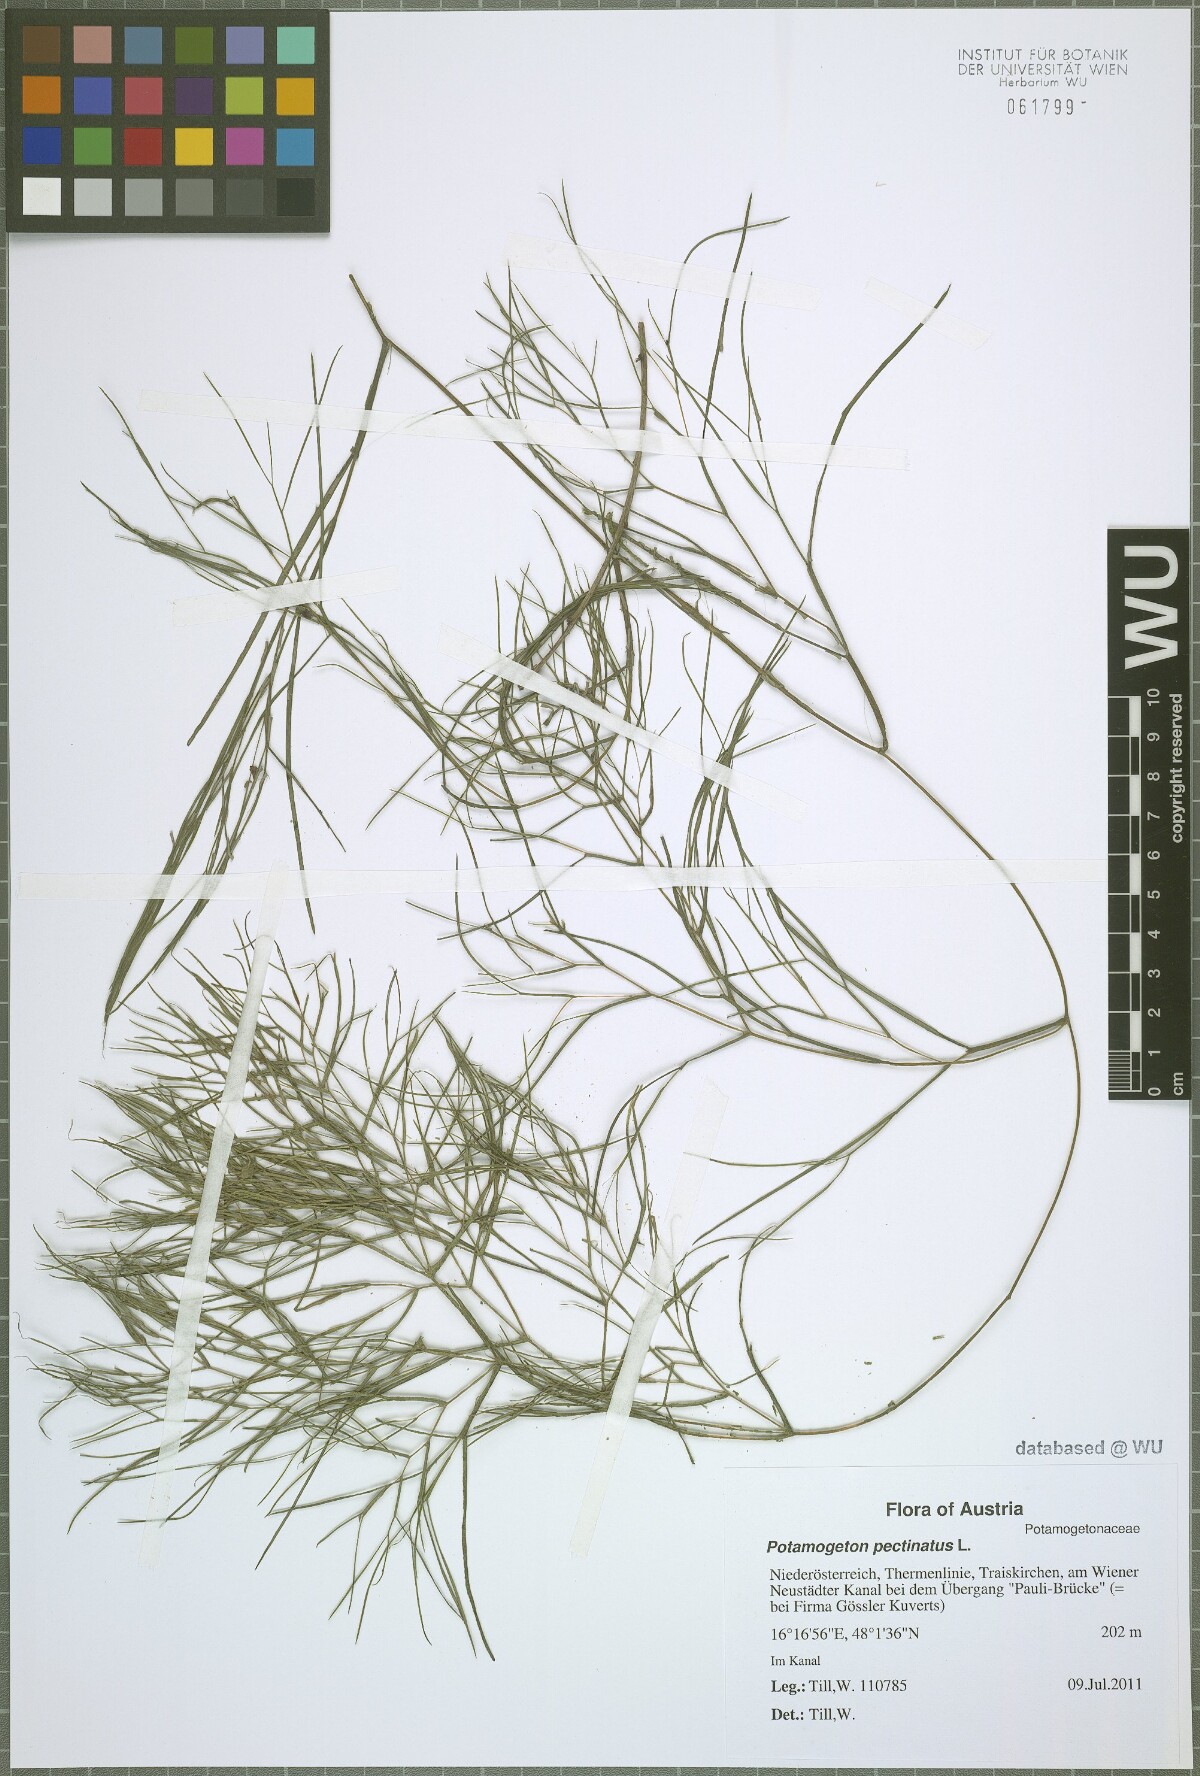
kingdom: Plantae
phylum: Tracheophyta
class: Liliopsida
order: Alismatales
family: Potamogetonaceae
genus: Stuckenia
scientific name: Stuckenia pectinata
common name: Sago pondweed
